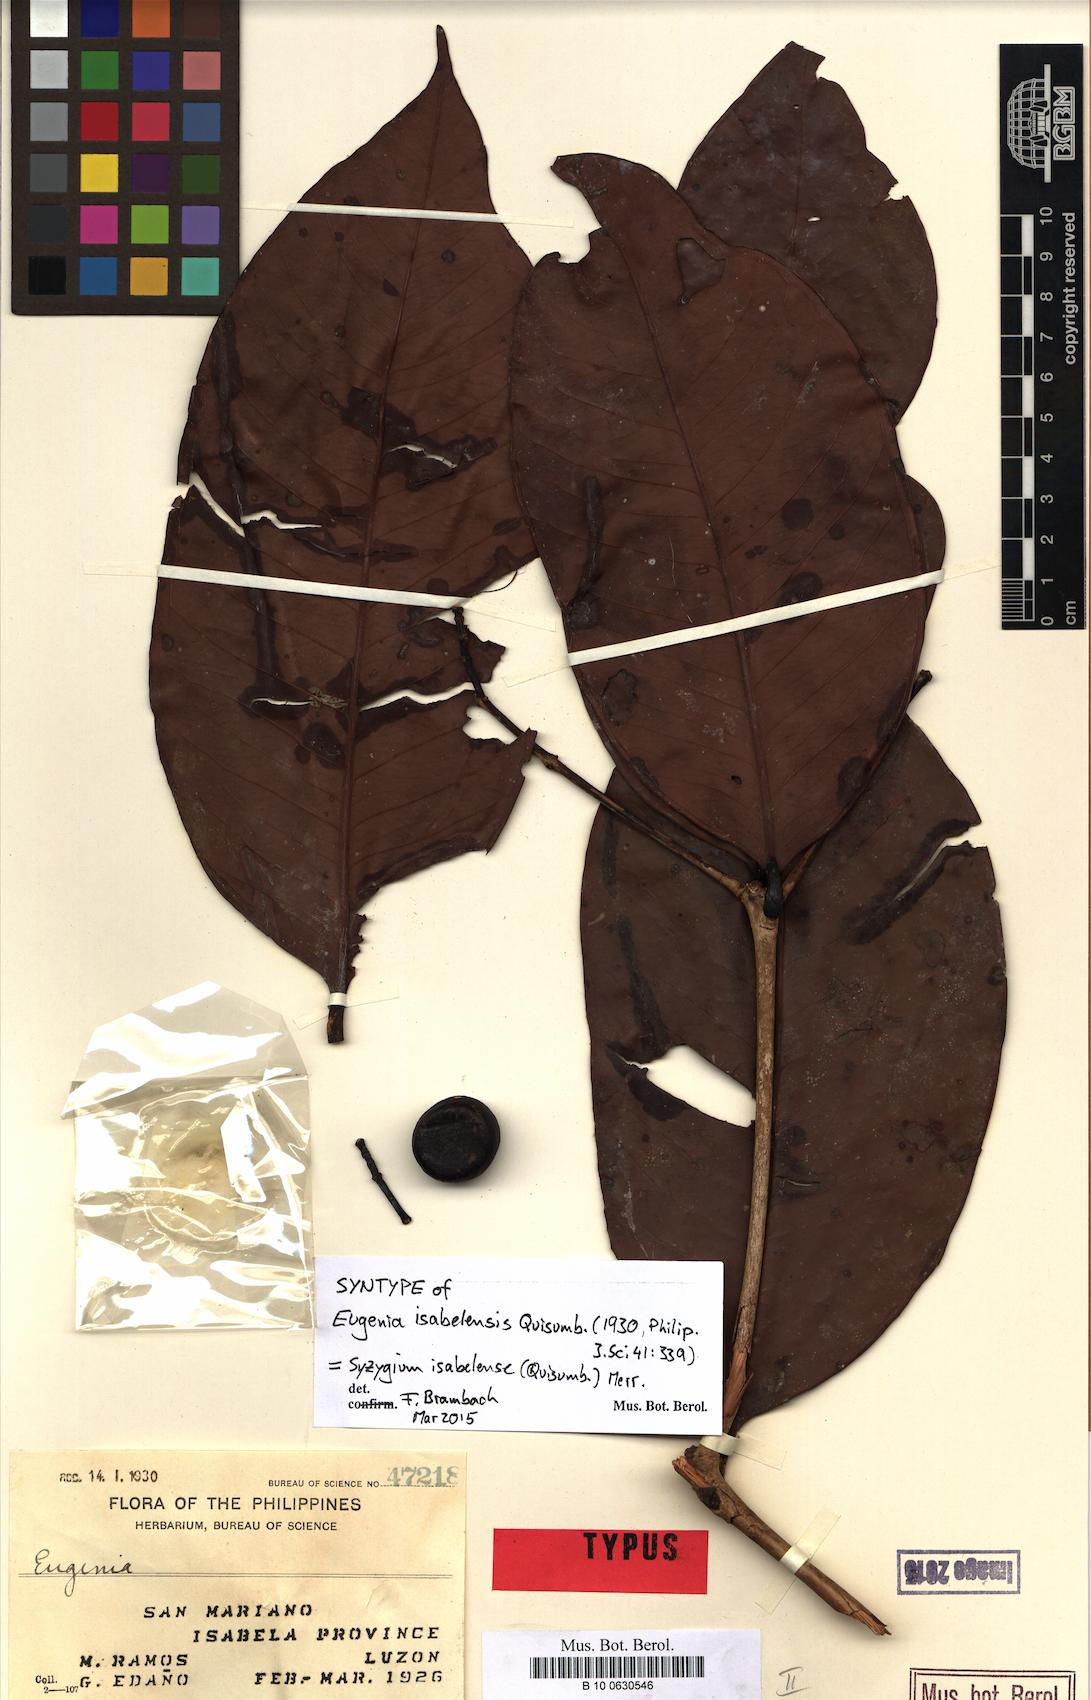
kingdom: Plantae
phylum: Tracheophyta
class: Magnoliopsida
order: Myrtales
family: Myrtaceae
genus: Syzygium
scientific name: Syzygium isabelense
